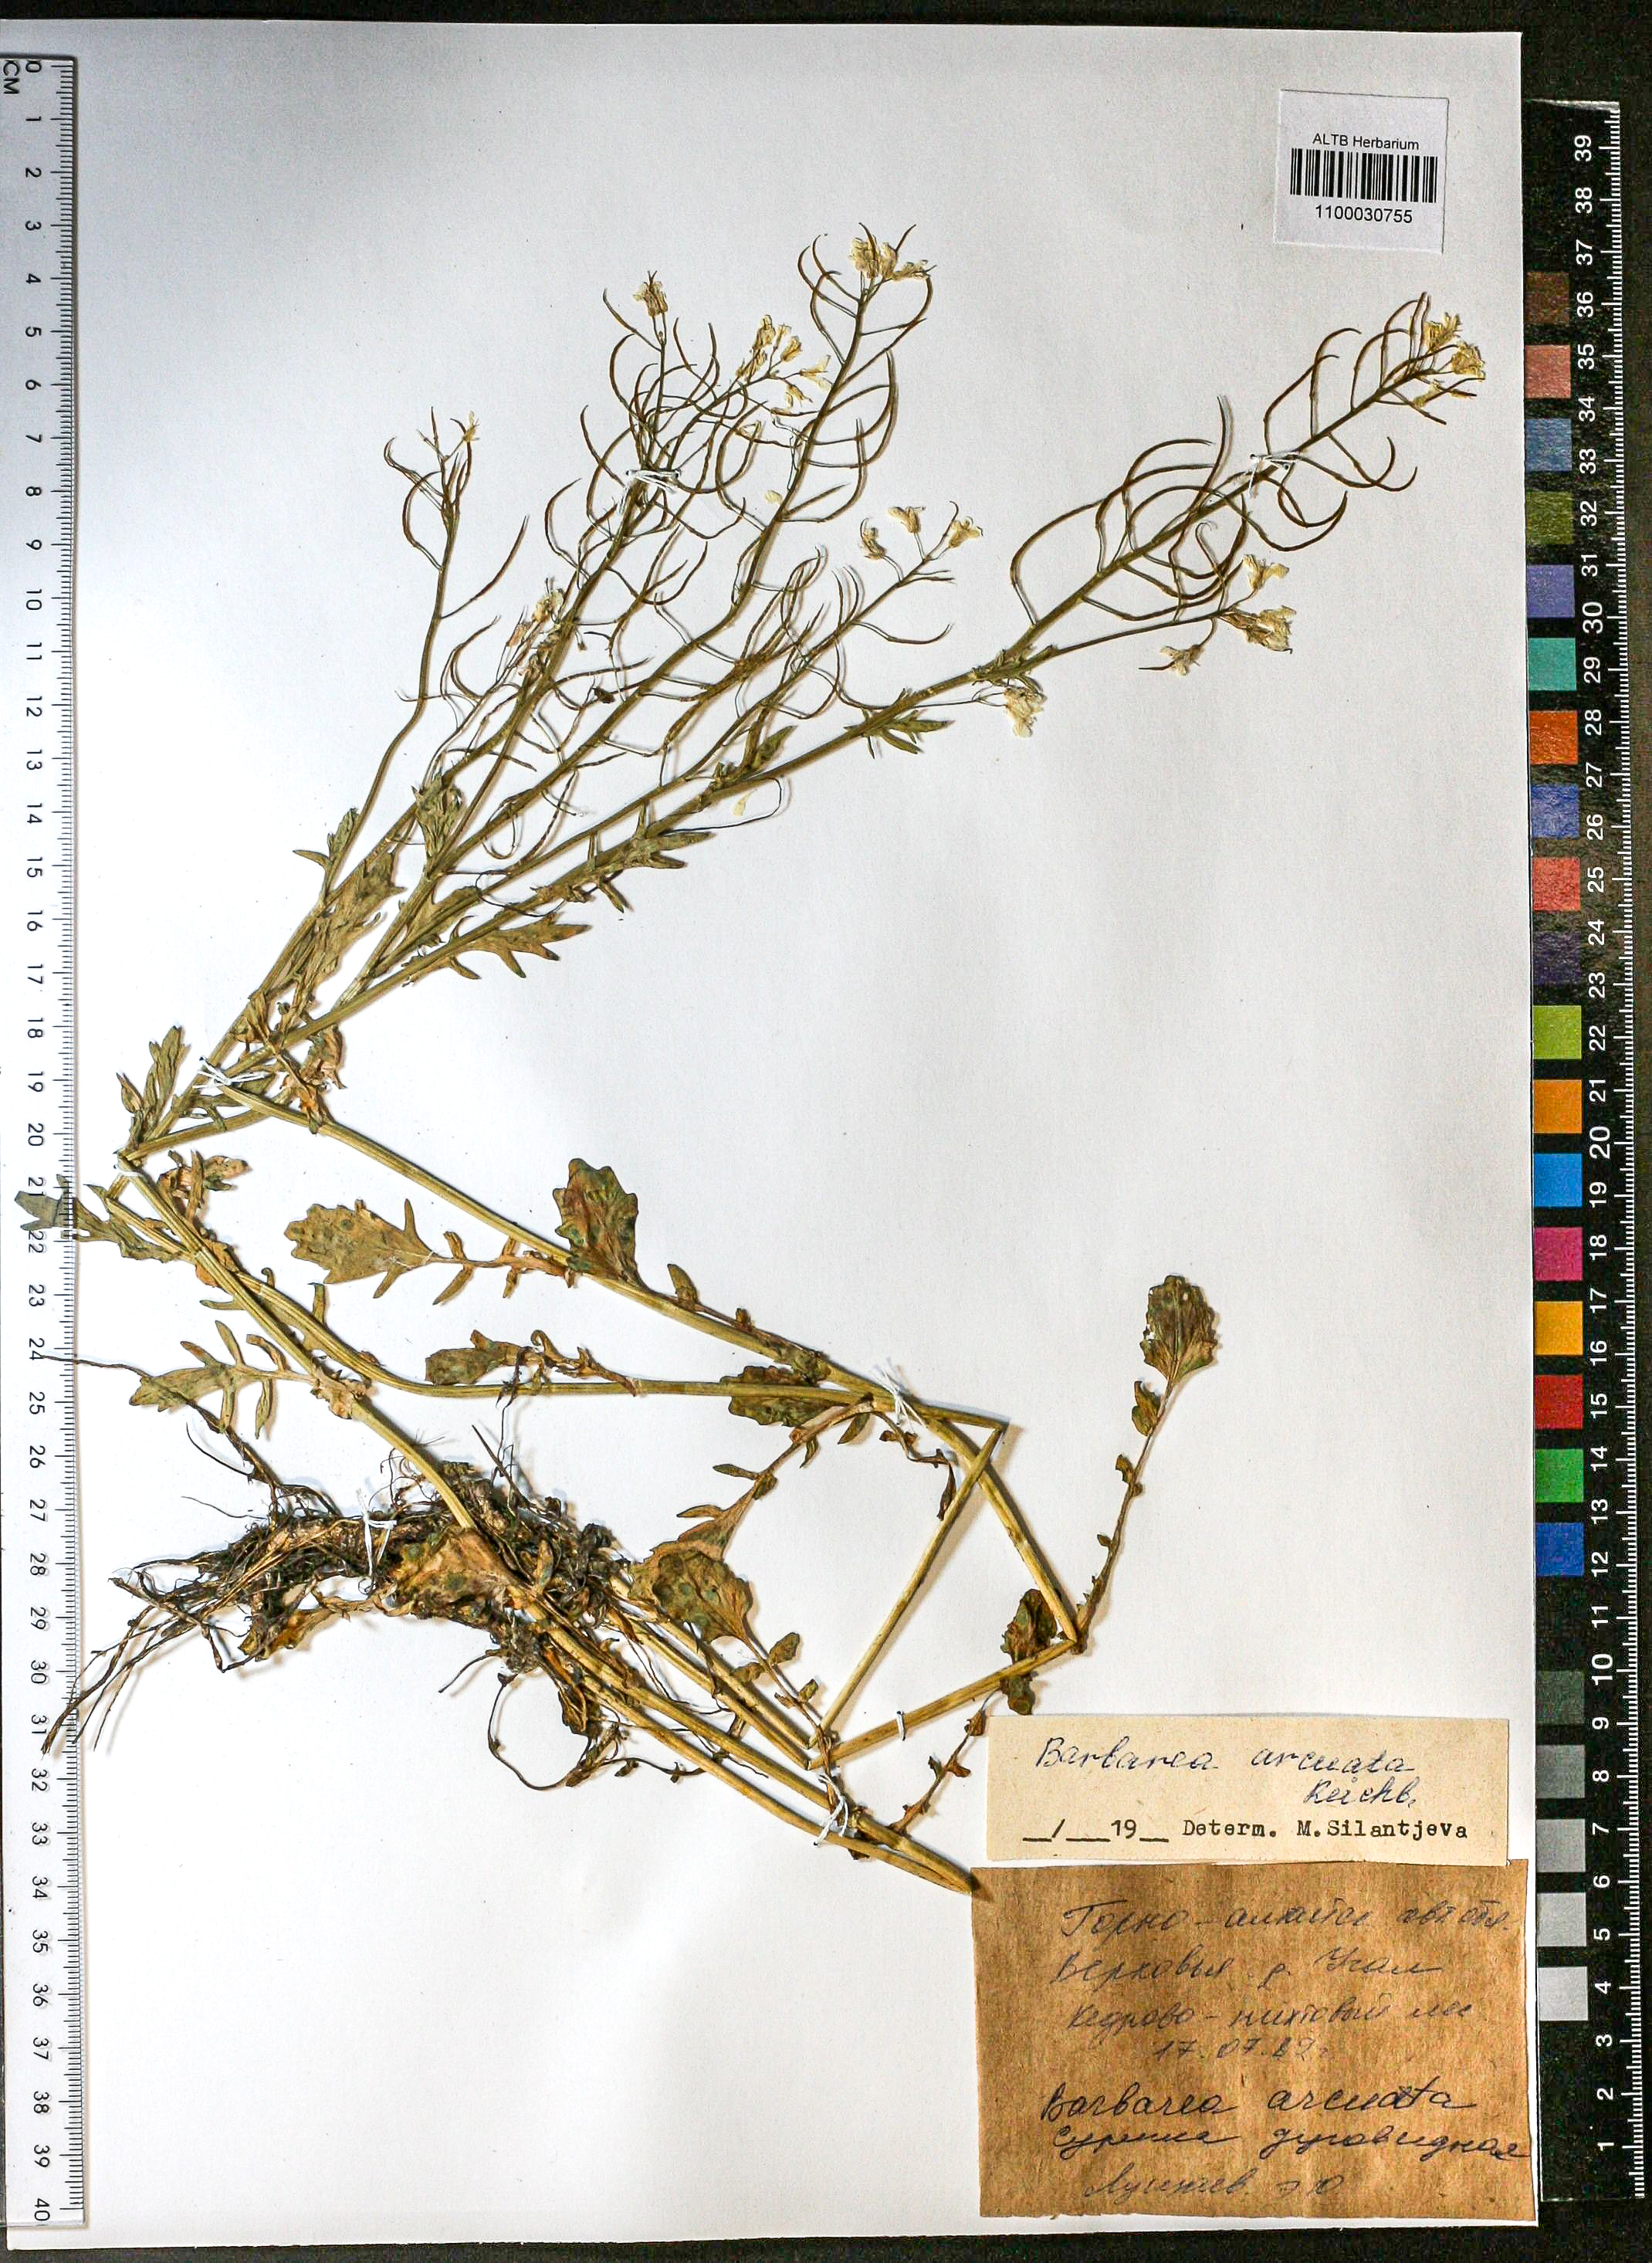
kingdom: Plantae
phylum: Tracheophyta
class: Magnoliopsida
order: Brassicales
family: Brassicaceae
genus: Barbarea
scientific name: Barbarea vulgaris
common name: Cressy-greens
